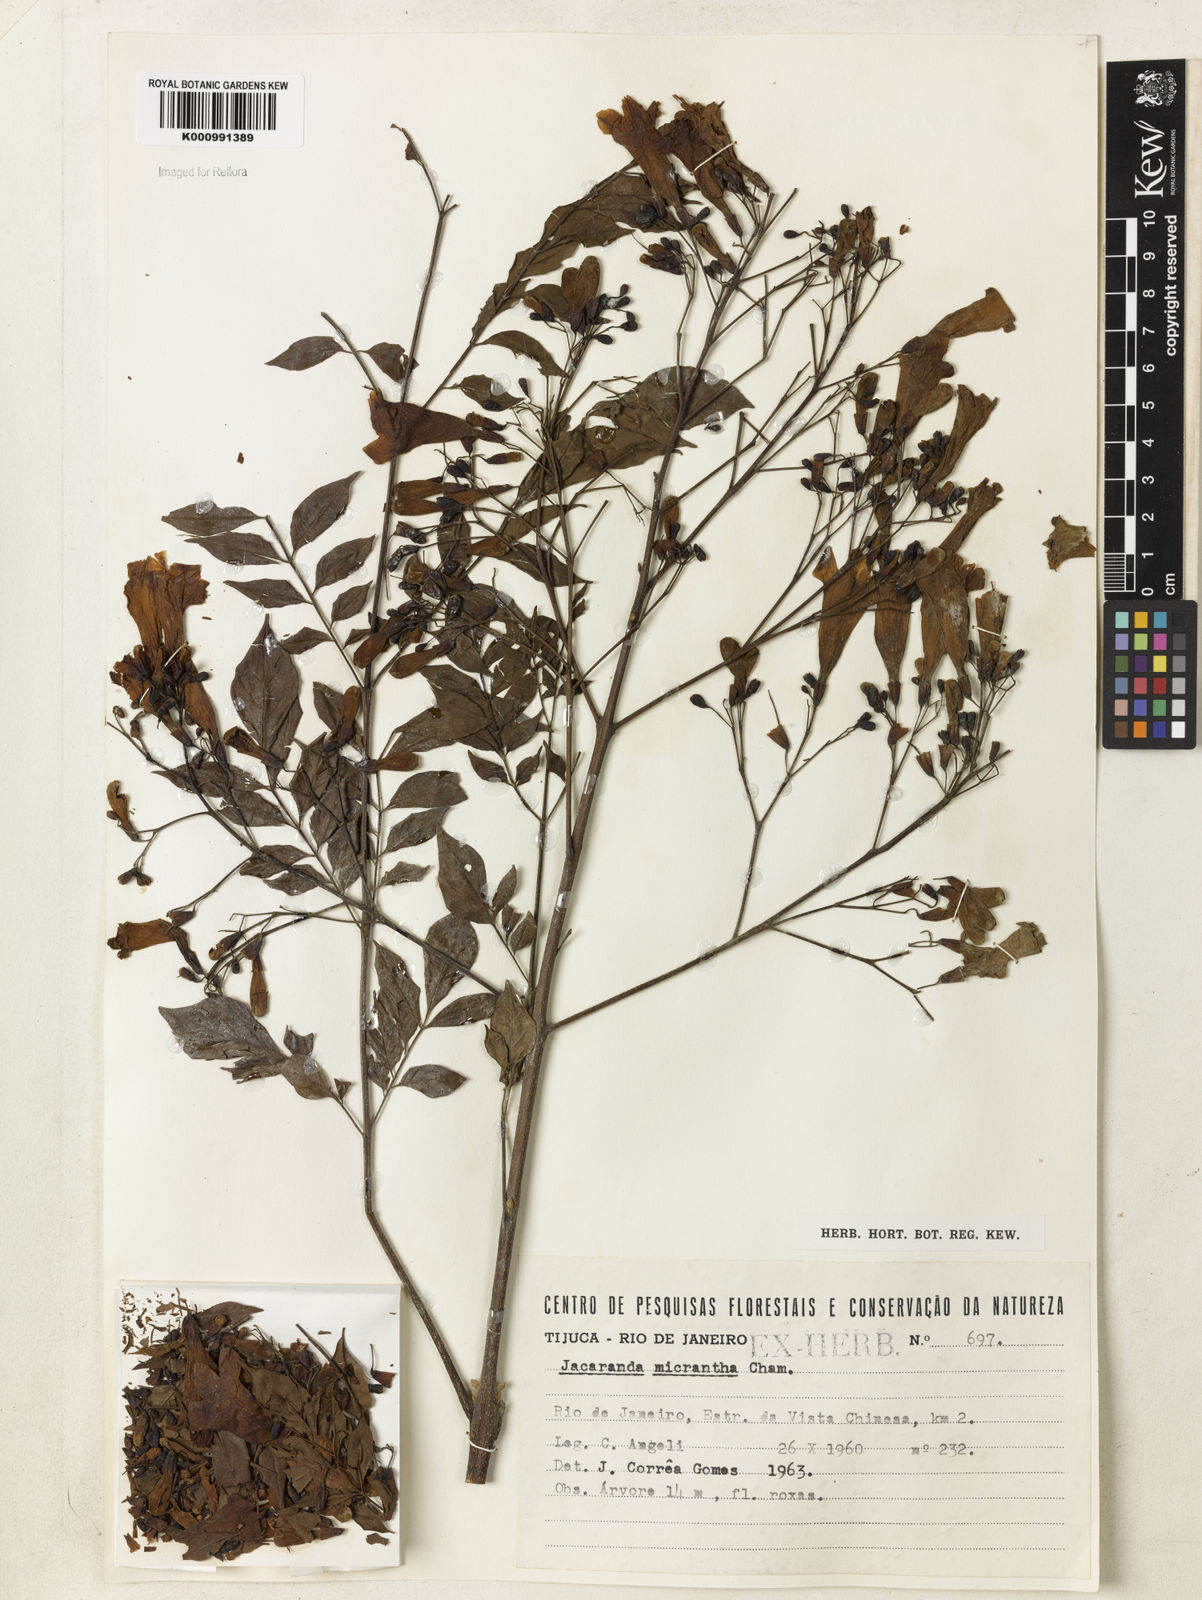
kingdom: Plantae
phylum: Tracheophyta
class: Magnoliopsida
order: Lamiales
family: Bignoniaceae
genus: Jacaranda
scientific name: Jacaranda micrantha
